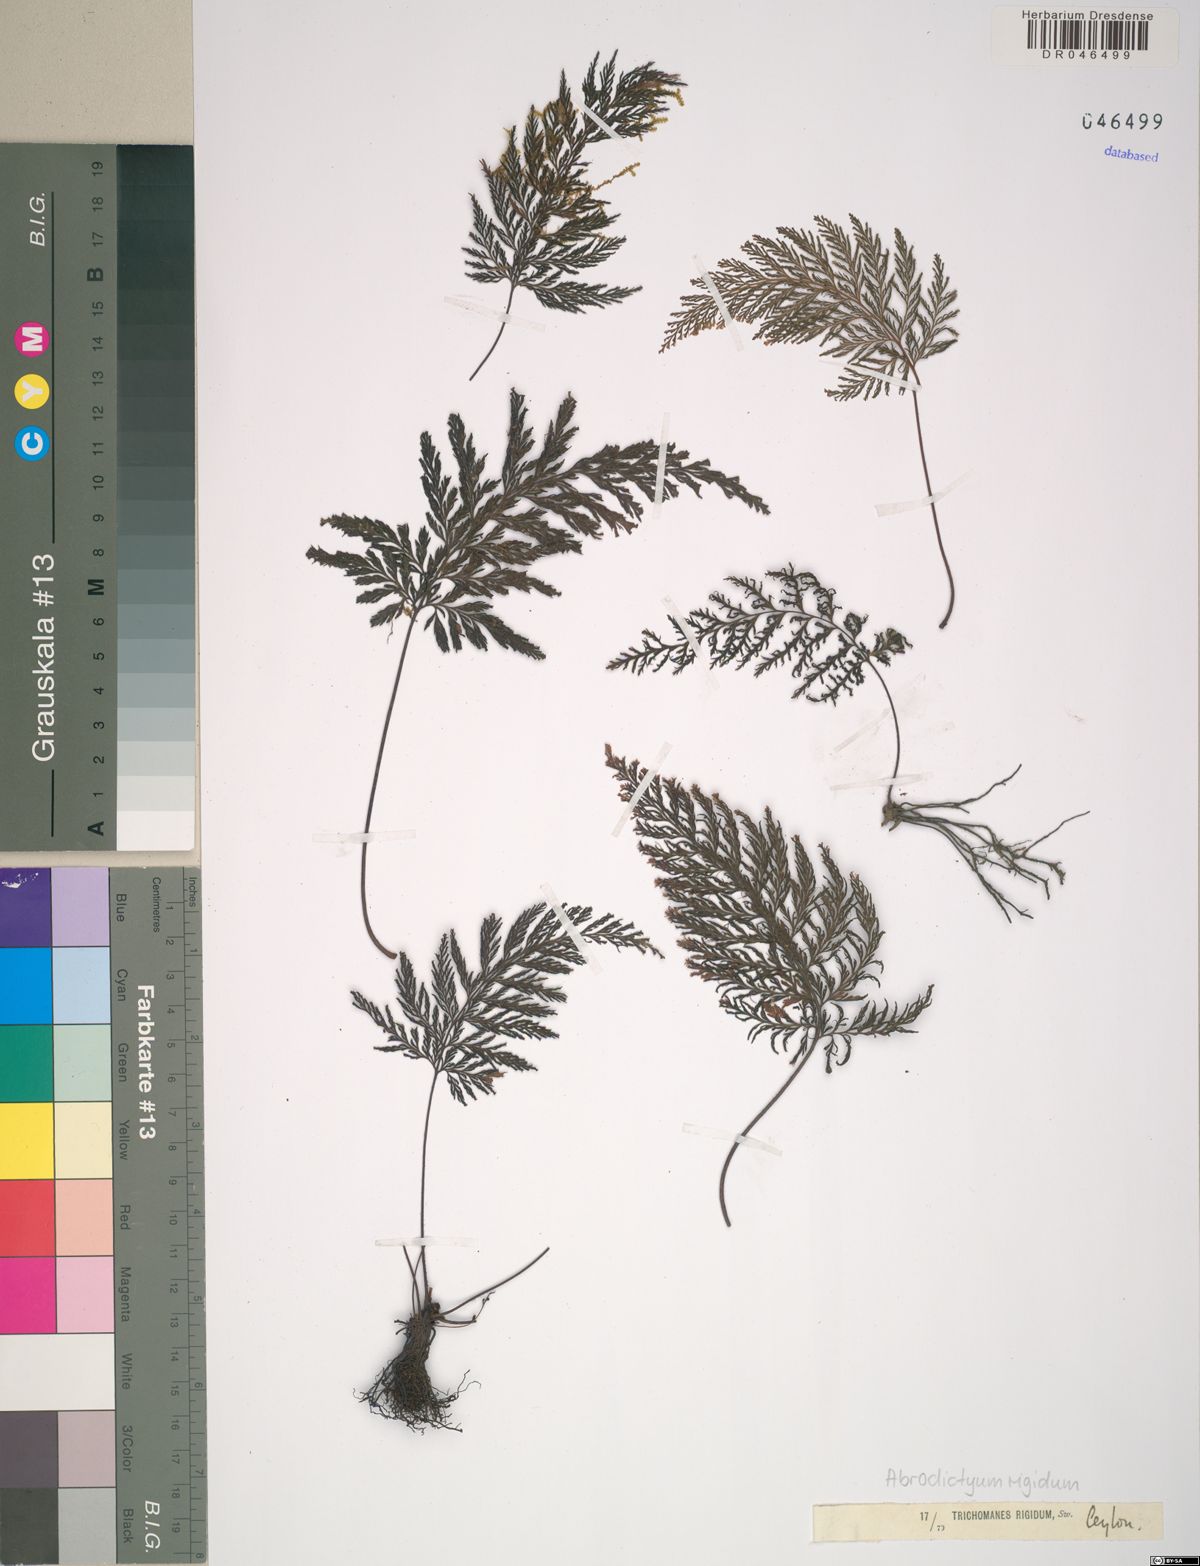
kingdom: Plantae
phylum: Tracheophyta
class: Polypodiopsida
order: Hymenophyllales
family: Hymenophyllaceae
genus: Abrodictyum
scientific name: Abrodictyum rigidum
